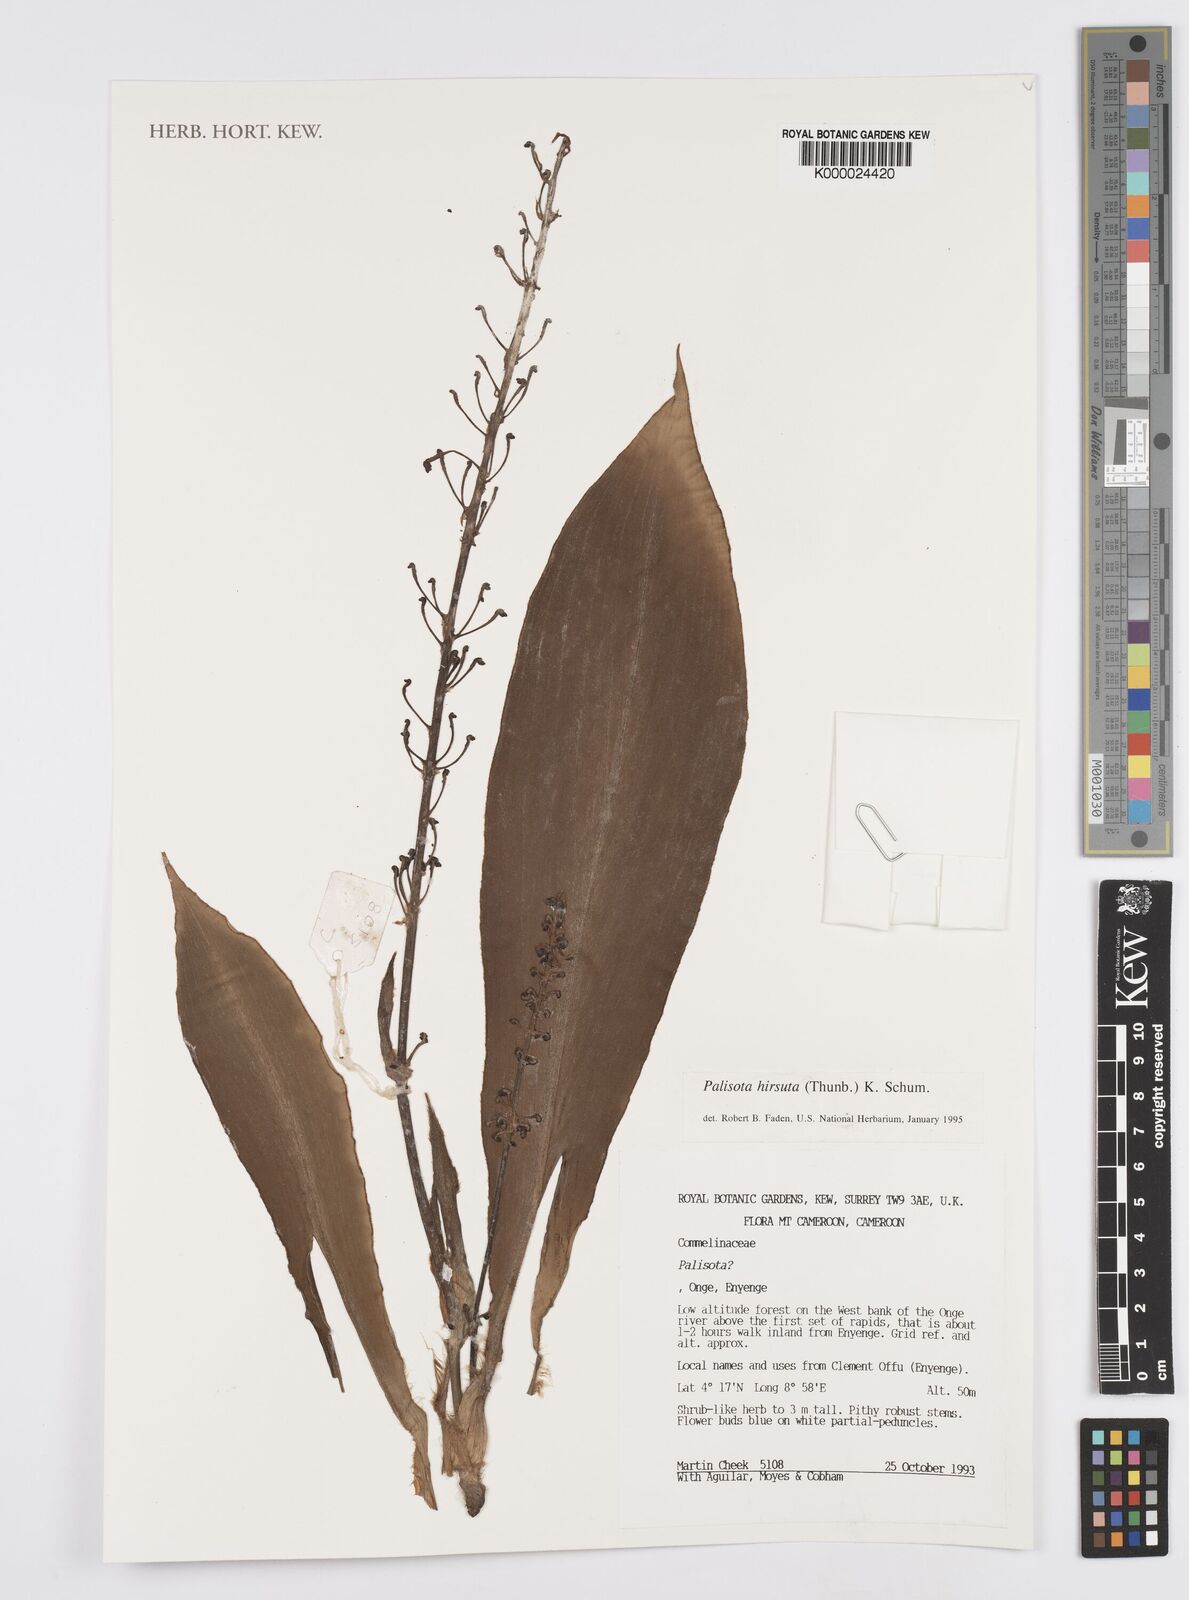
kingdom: Plantae
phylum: Tracheophyta
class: Liliopsida
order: Commelinales
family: Commelinaceae
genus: Palisota
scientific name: Palisota hirsuta
